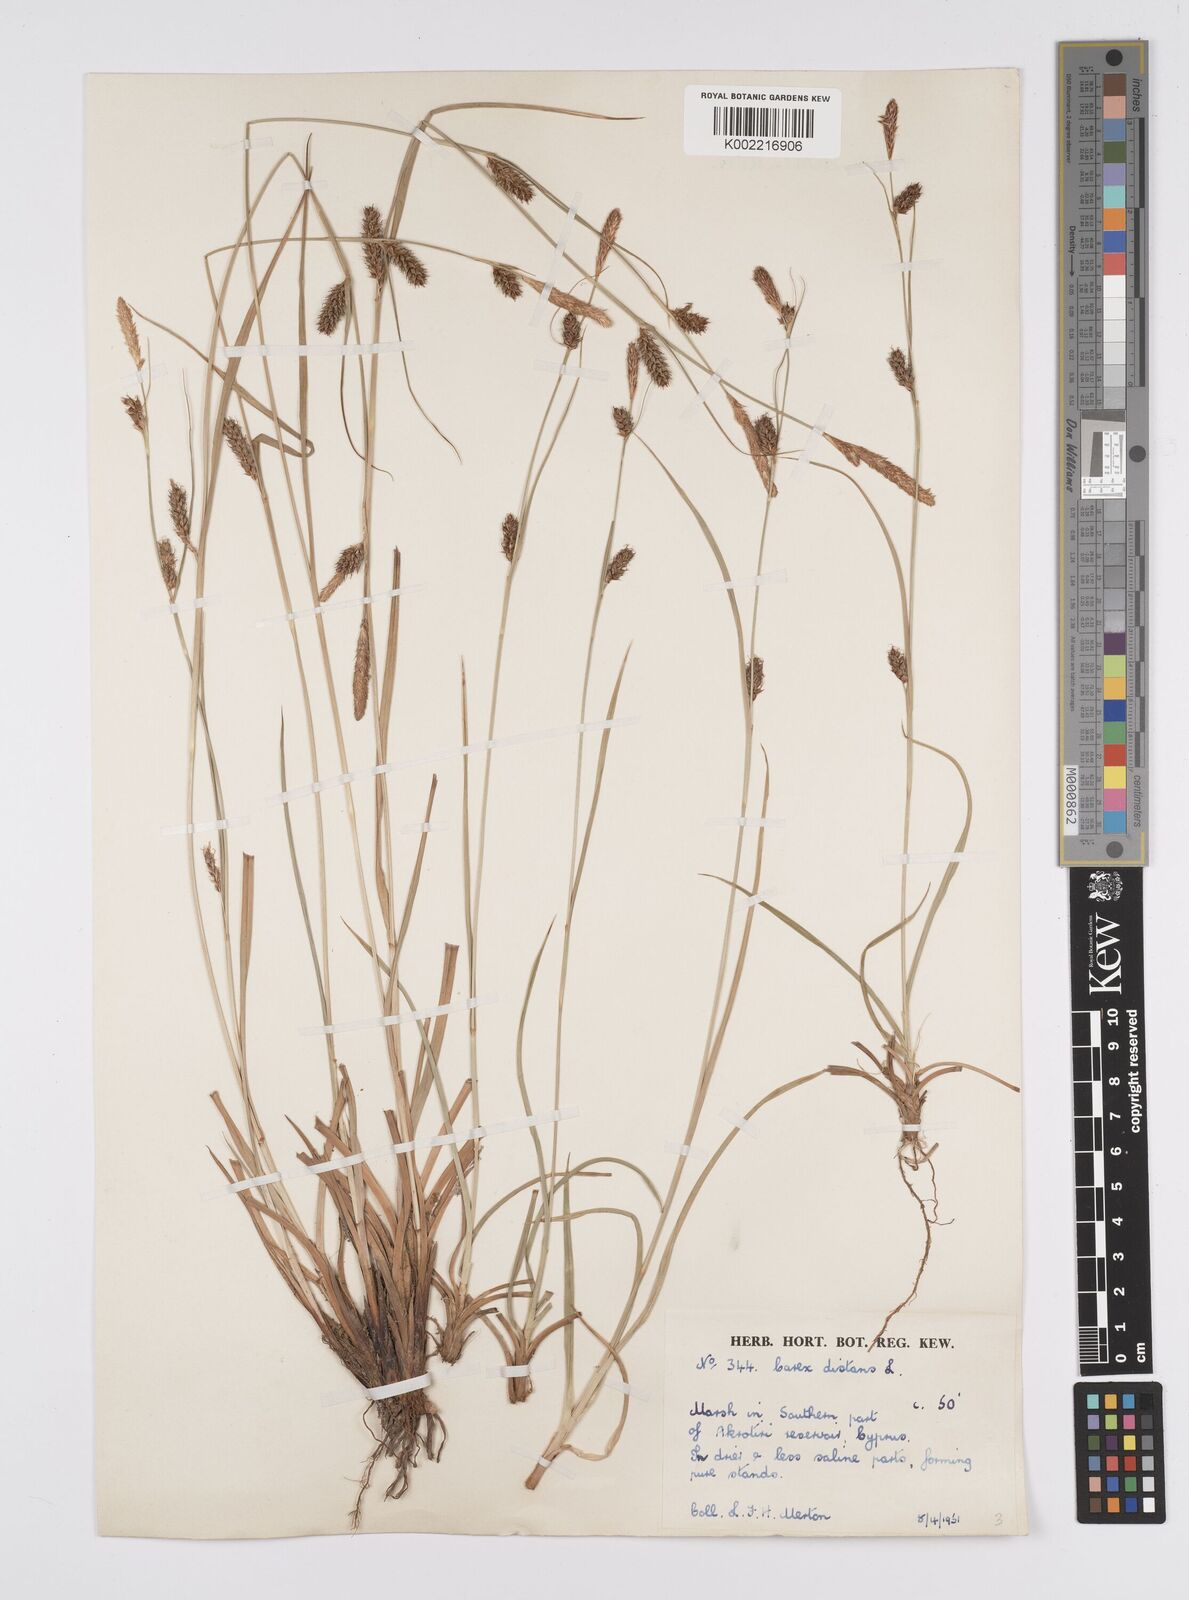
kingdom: Plantae
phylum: Tracheophyta
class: Liliopsida
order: Poales
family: Cyperaceae
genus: Carex
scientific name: Carex distans
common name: Distant sedge
